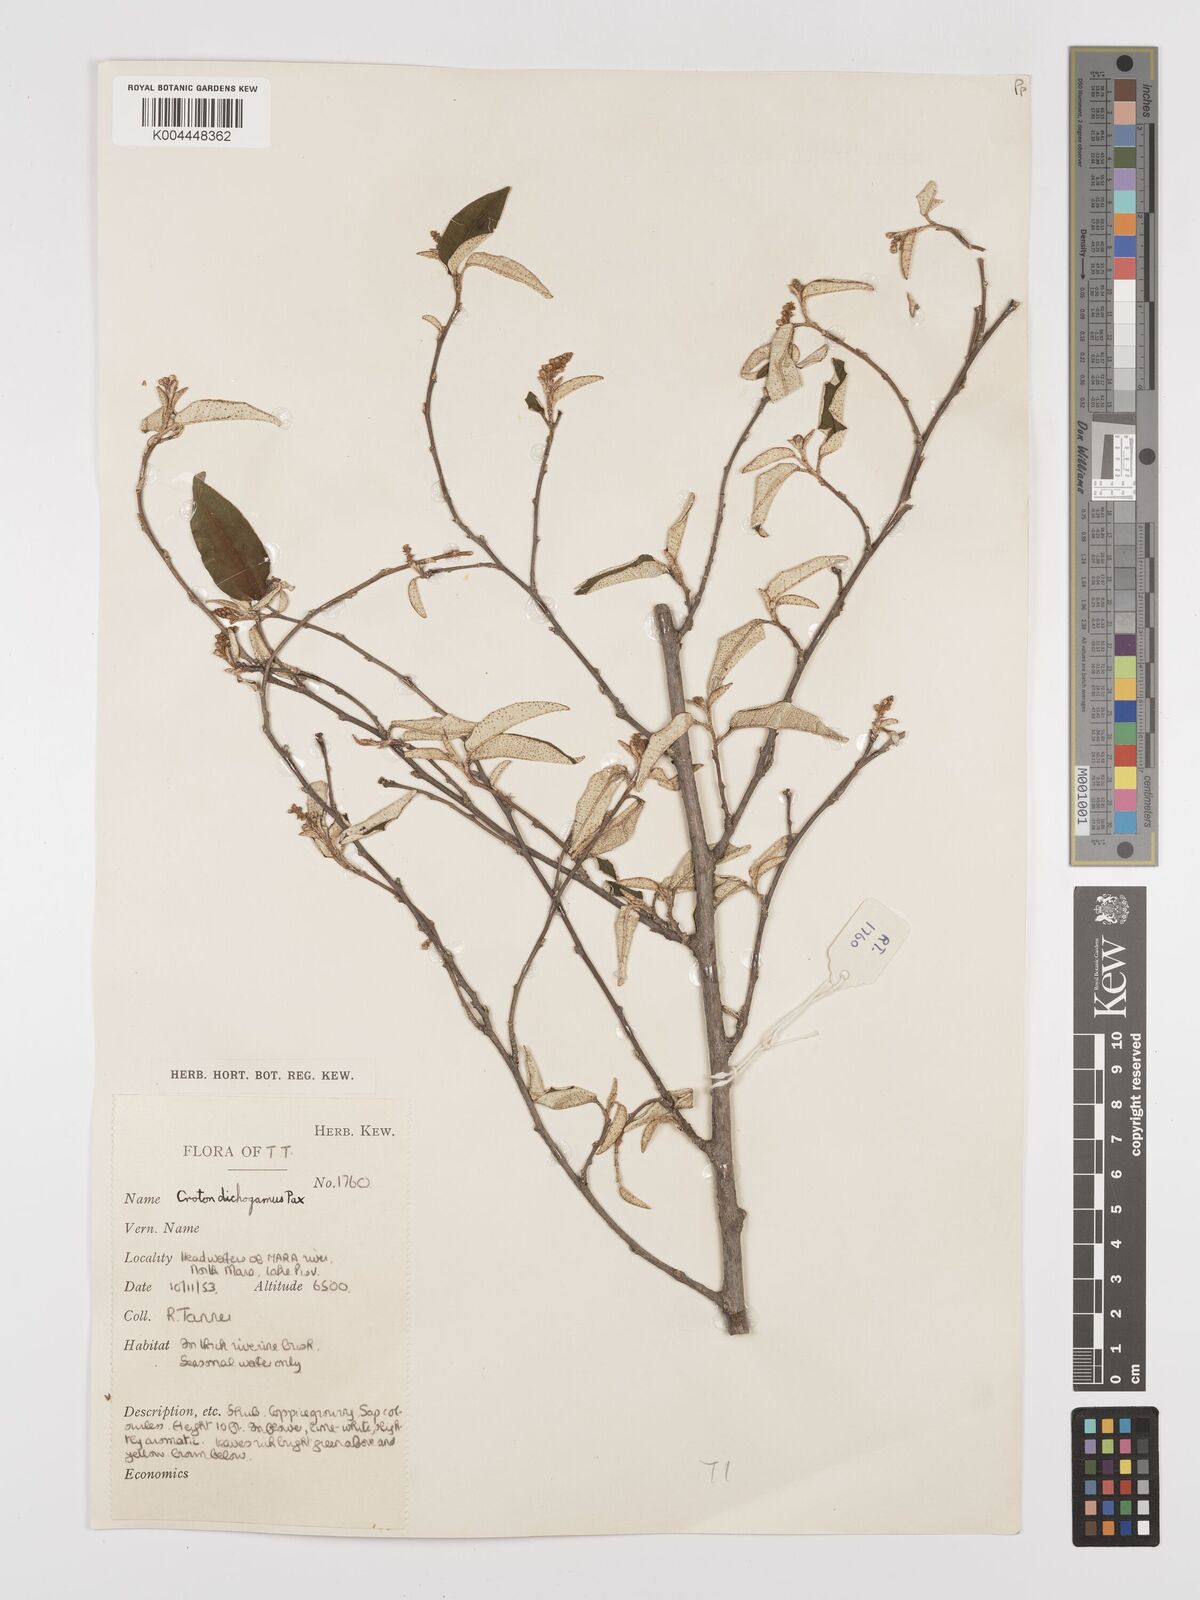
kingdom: Plantae
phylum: Tracheophyta
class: Magnoliopsida
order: Malpighiales
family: Euphorbiaceae
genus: Croton
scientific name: Croton dichogamus
